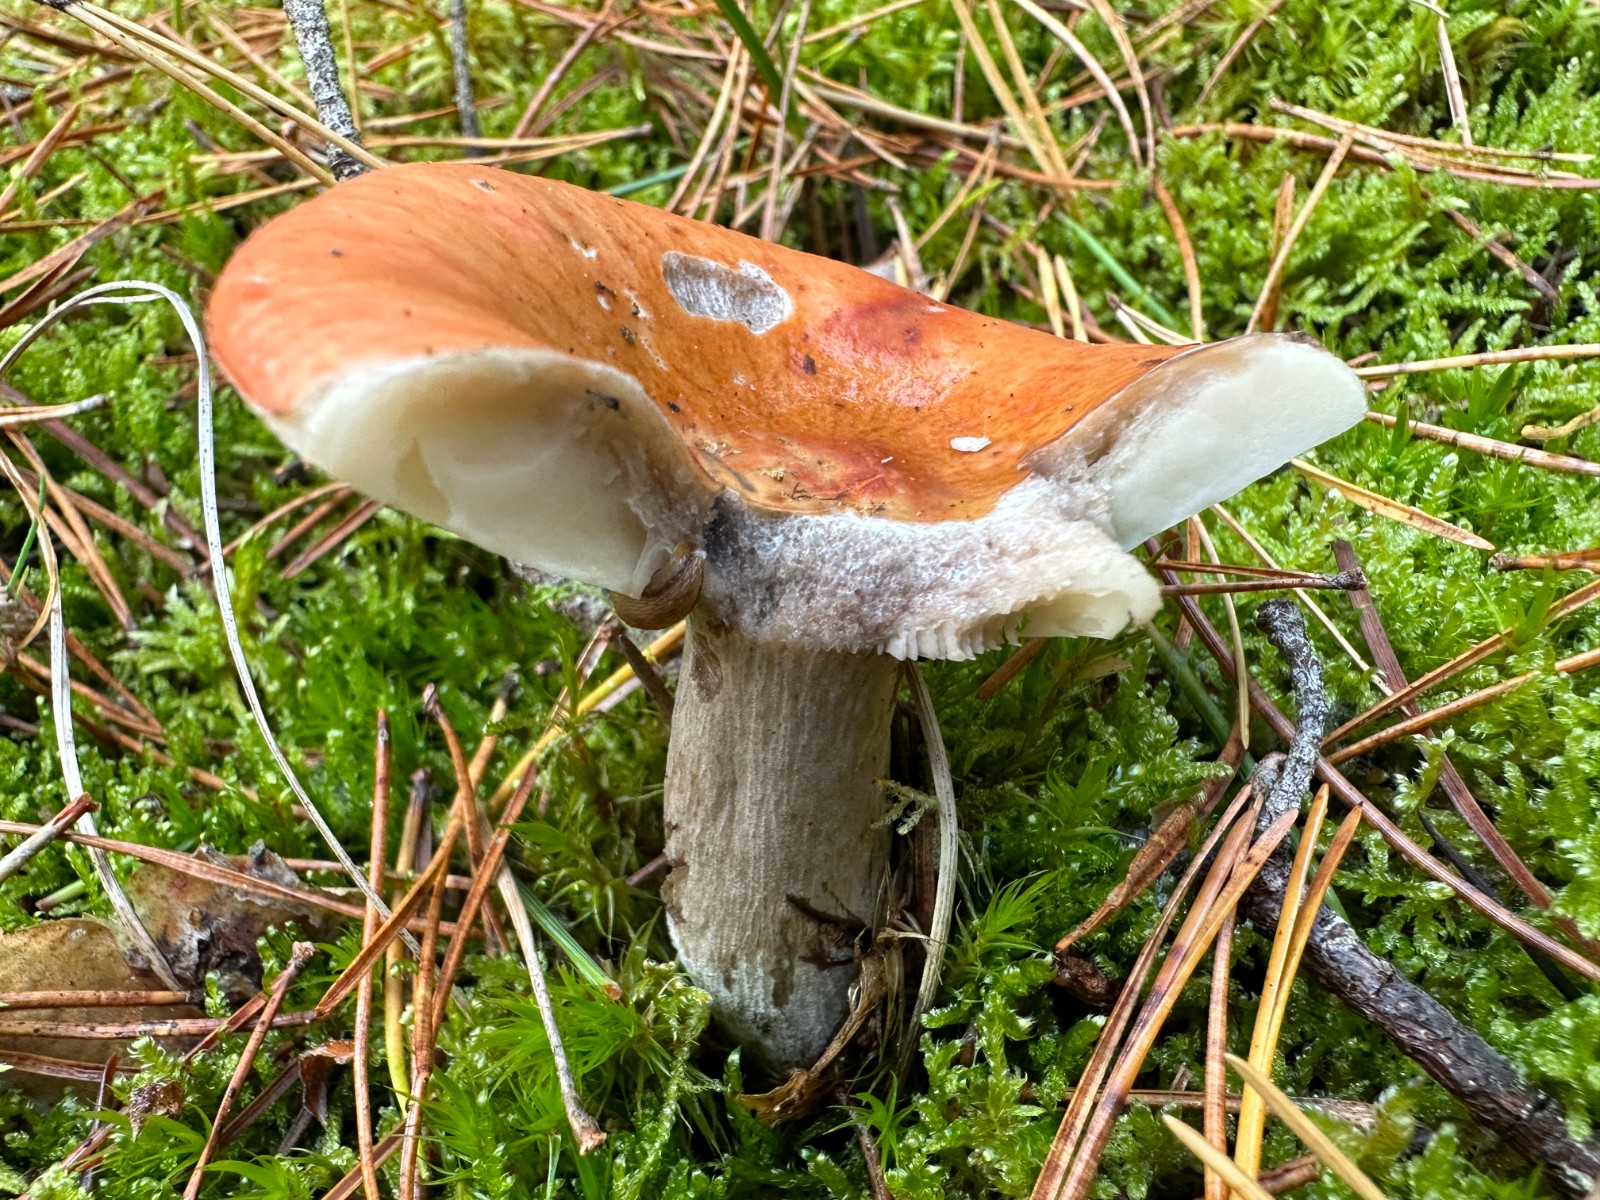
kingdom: Fungi
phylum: Basidiomycota
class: Agaricomycetes
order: Russulales
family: Russulaceae
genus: Russula
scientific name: Russula decolorans
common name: afblegende skørhat
